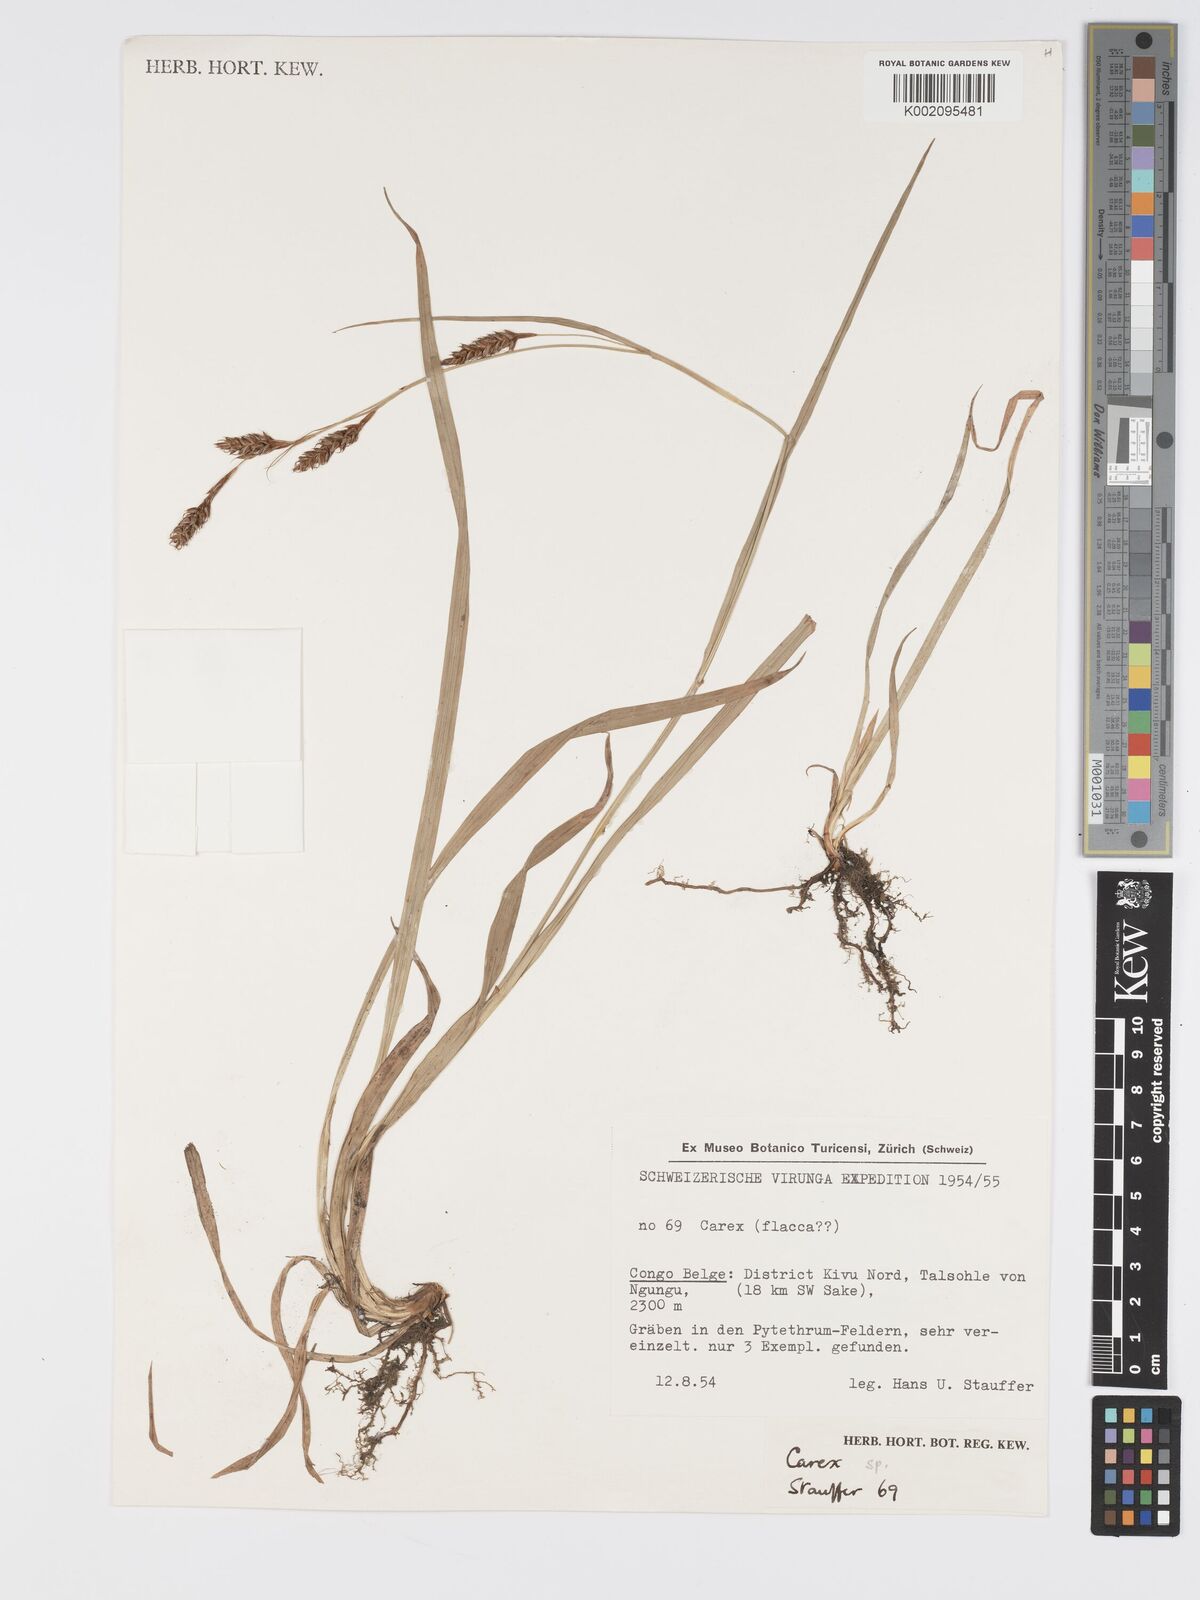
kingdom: Plantae
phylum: Tracheophyta
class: Liliopsida
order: Poales
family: Cyperaceae
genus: Carex
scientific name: Carex
